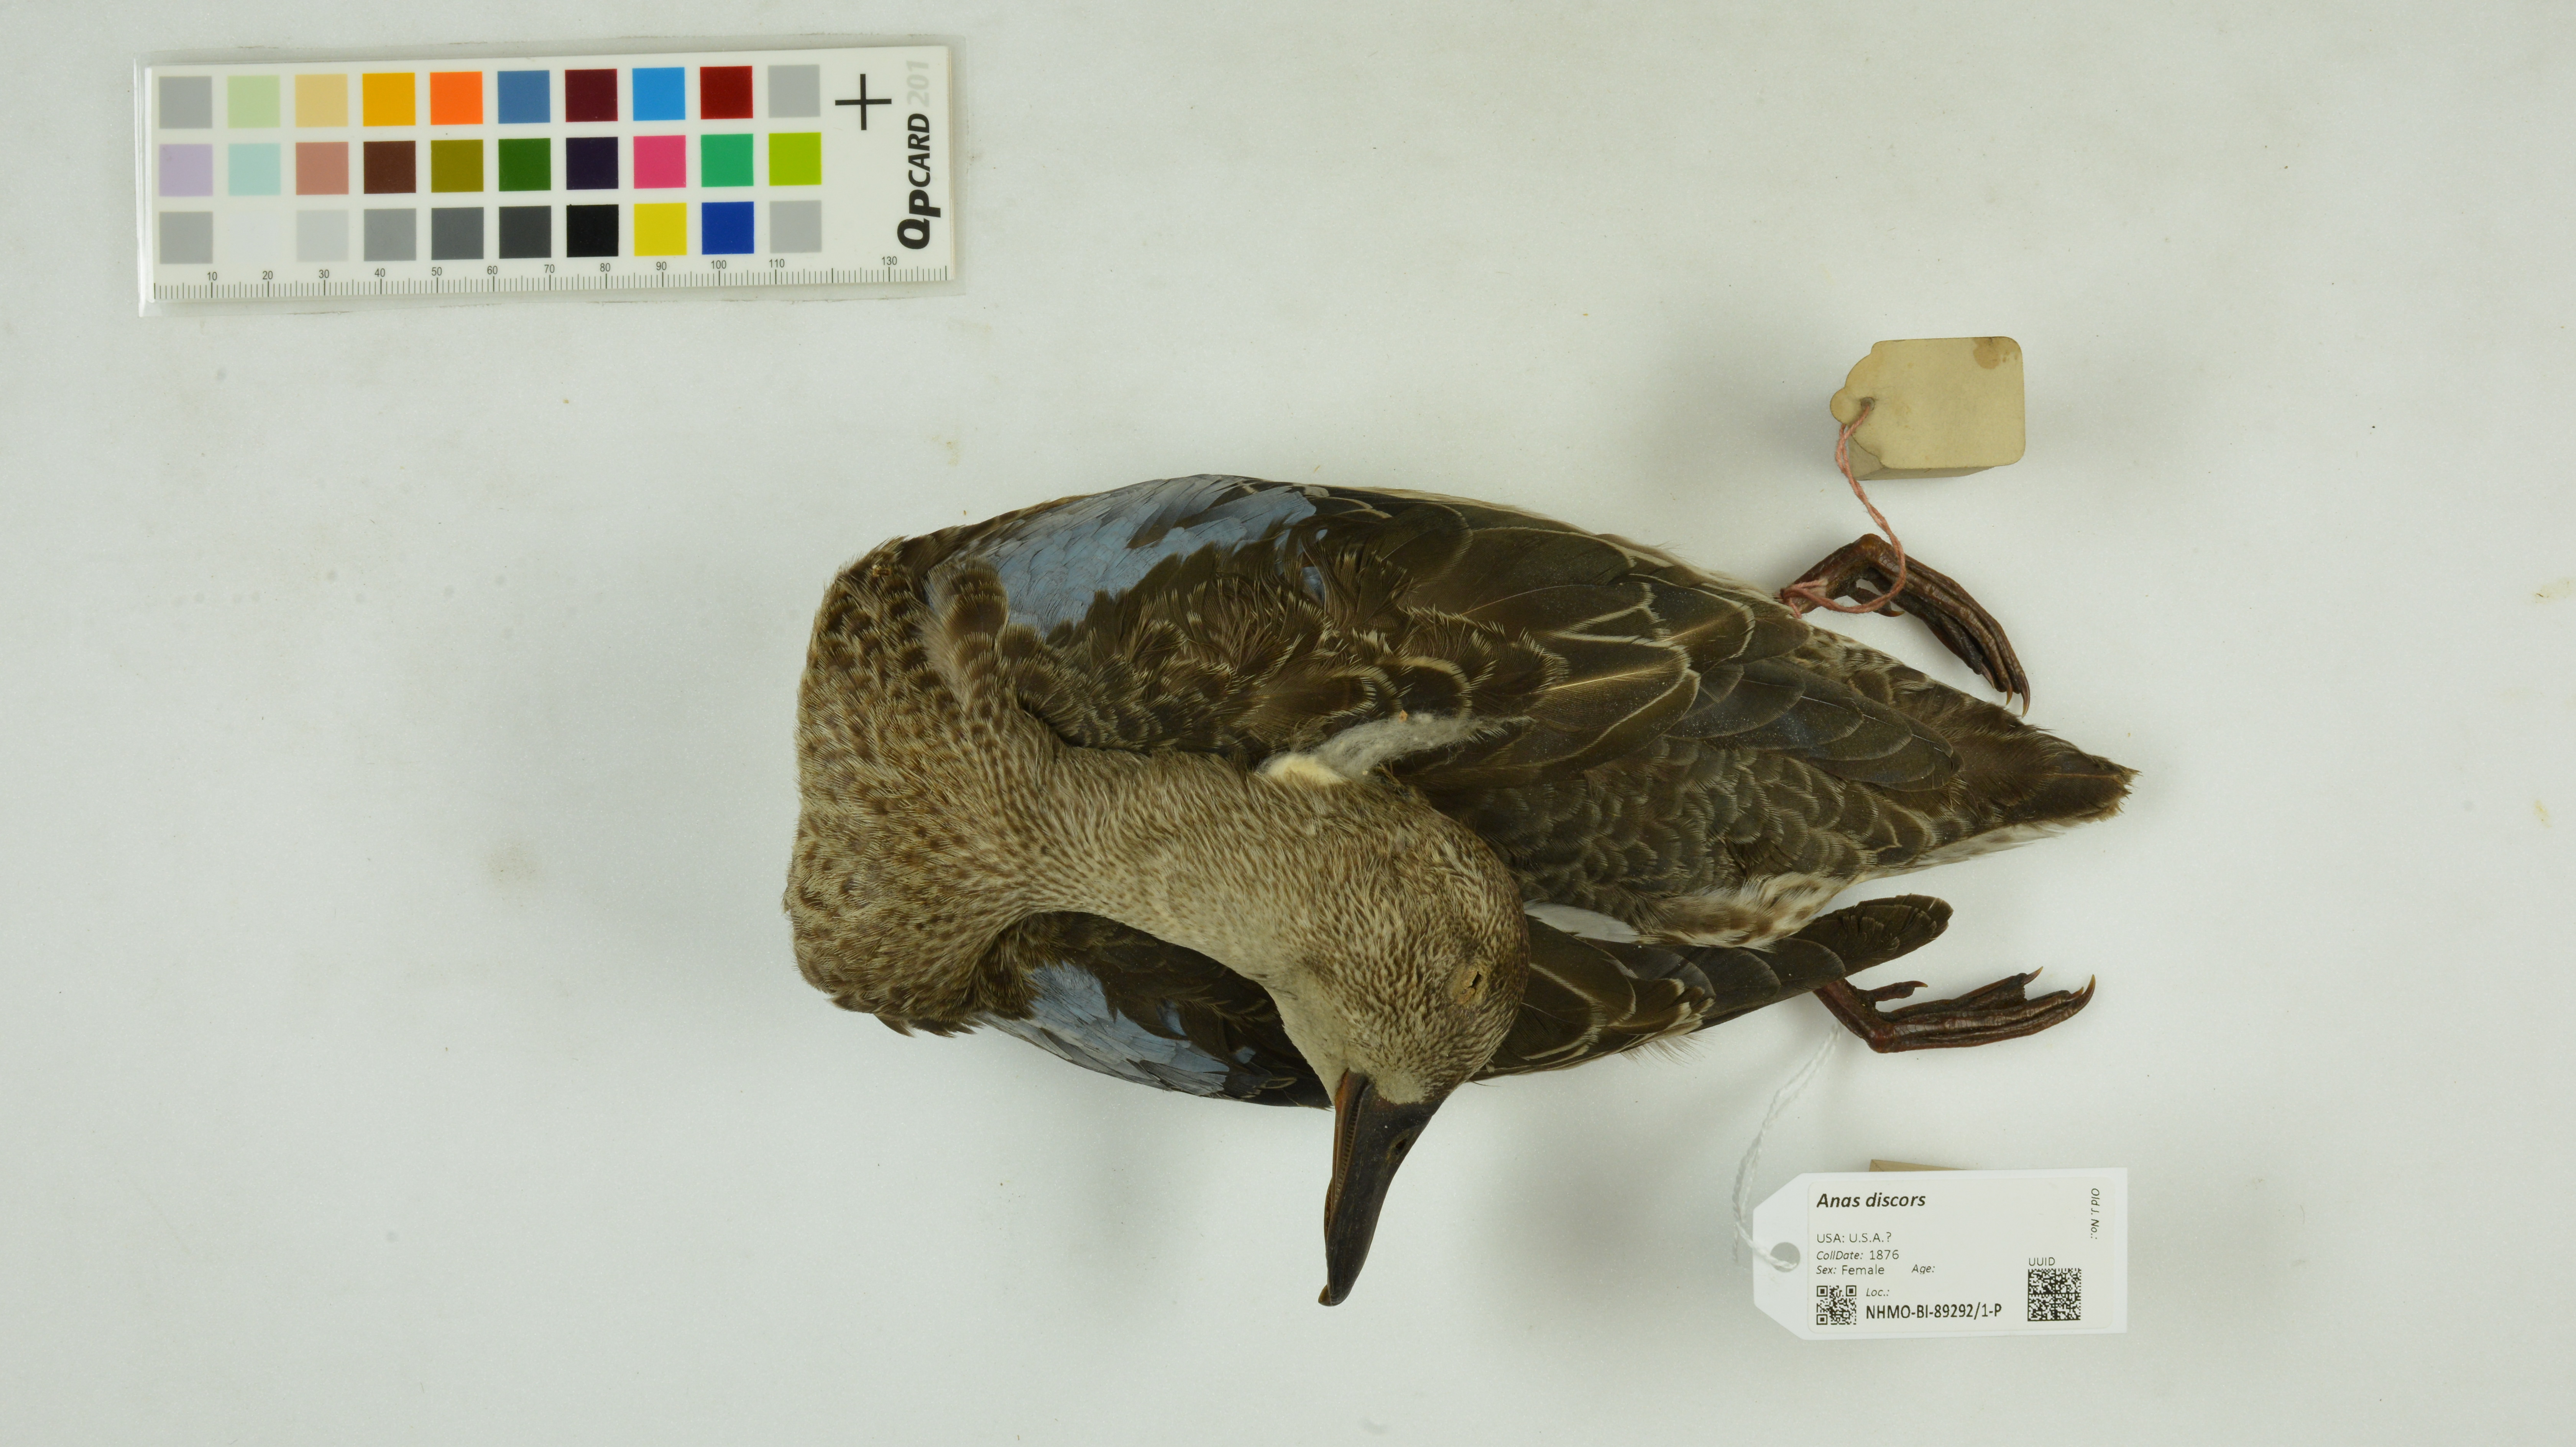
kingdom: Animalia
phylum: Chordata
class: Aves
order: Anseriformes
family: Anatidae
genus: Spatula
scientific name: Spatula discors
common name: Blue-winged teal
